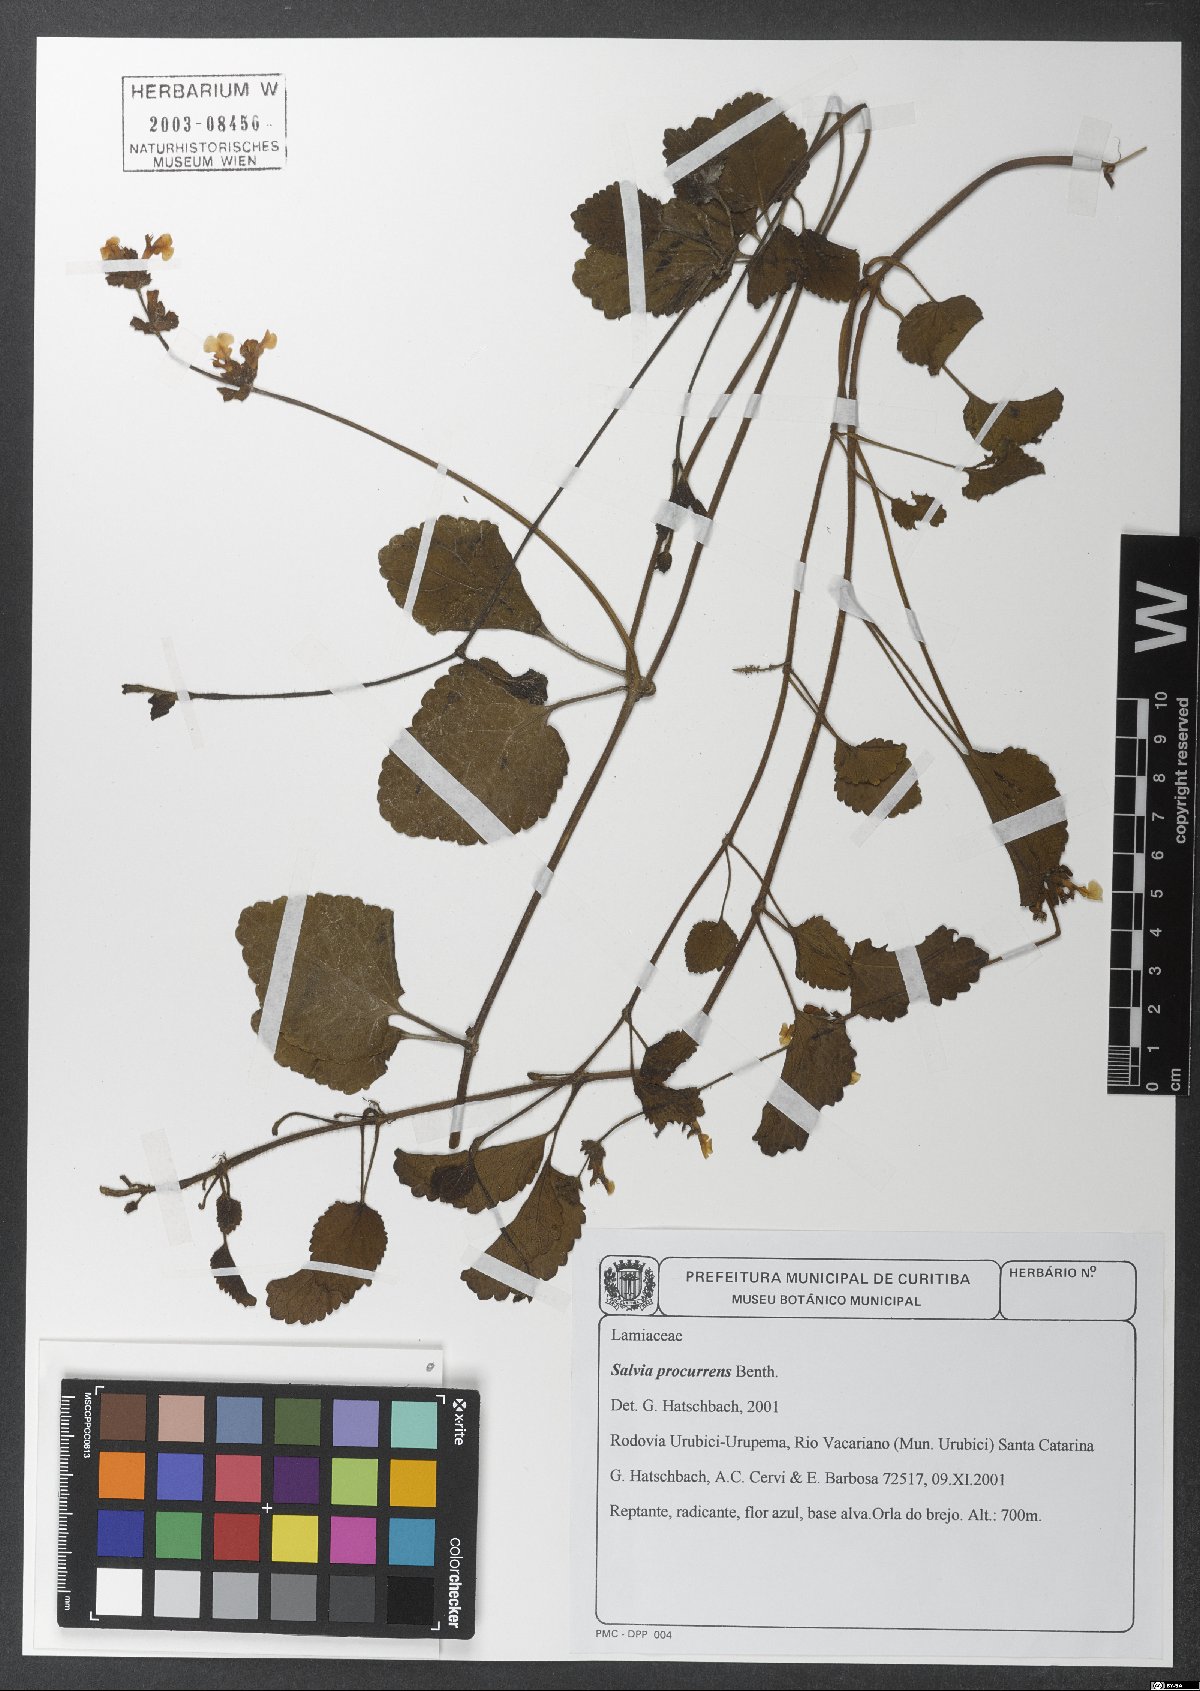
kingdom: Plantae
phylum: Tracheophyta
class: Magnoliopsida
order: Lamiales
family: Lamiaceae
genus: Salvia
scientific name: Salvia procurrens
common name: Blue creeper
